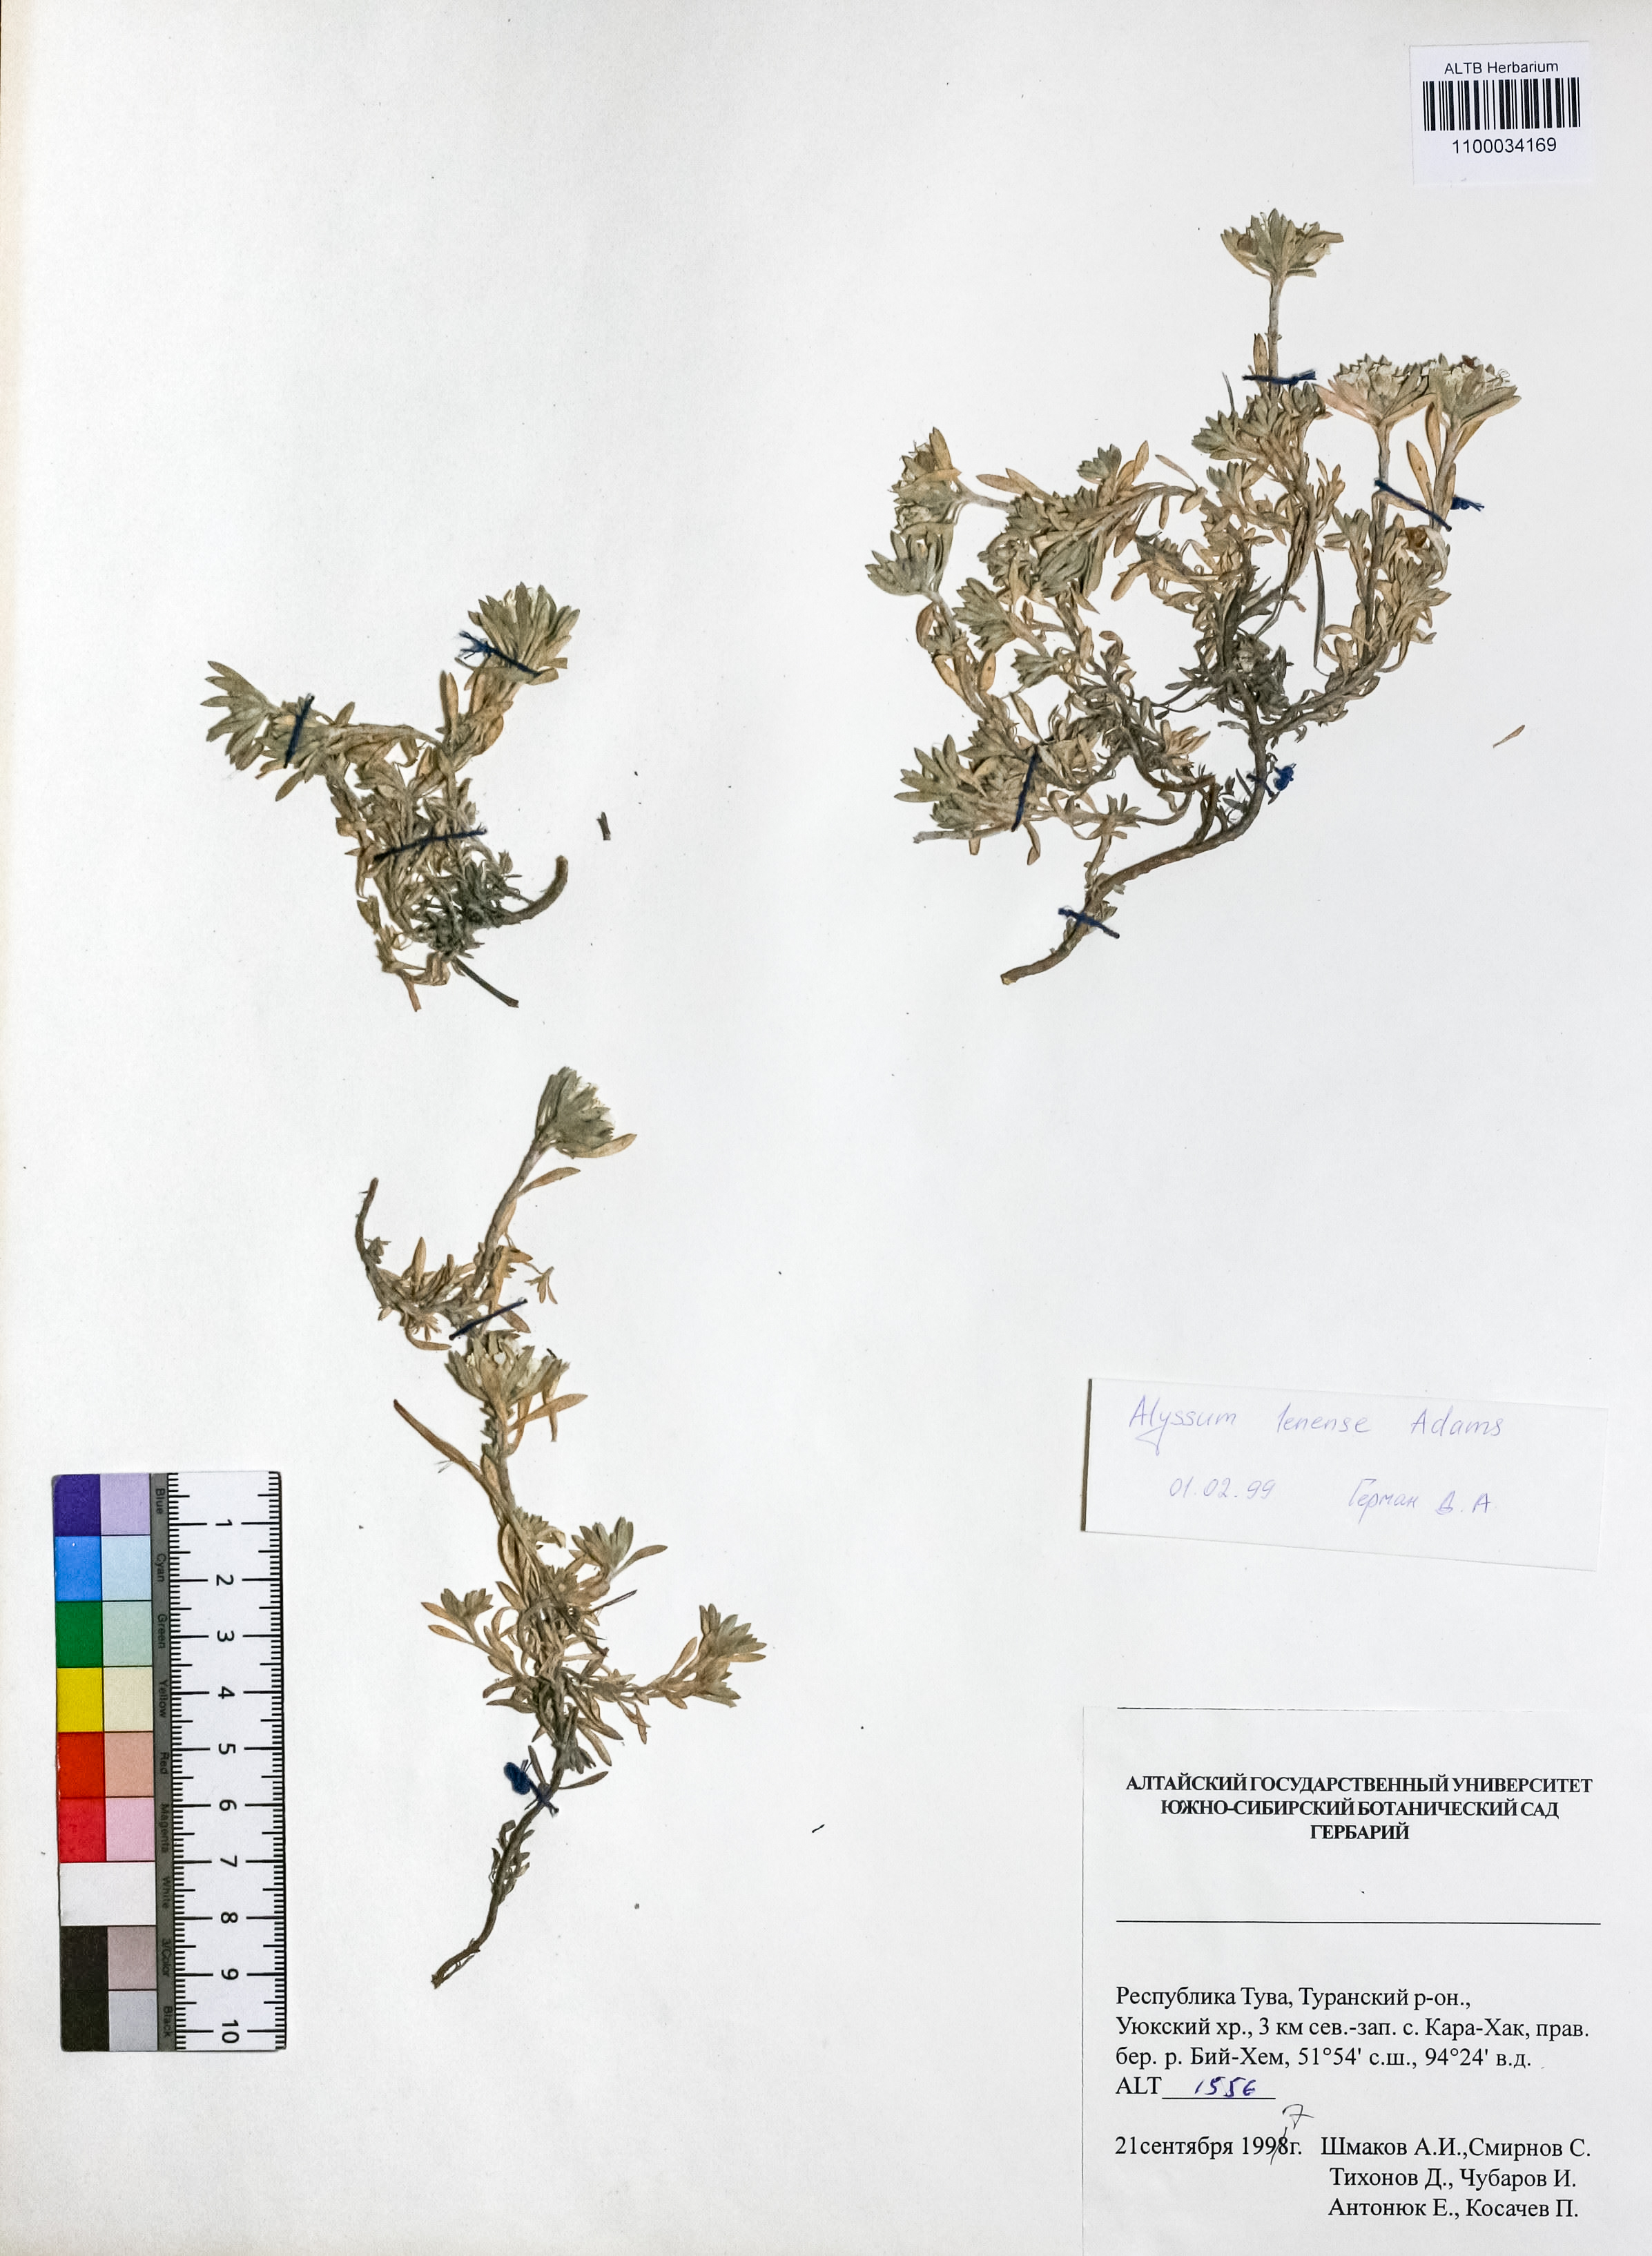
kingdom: Plantae
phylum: Tracheophyta
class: Magnoliopsida
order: Brassicales
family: Brassicaceae
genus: Alyssum
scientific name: Alyssum lenense
